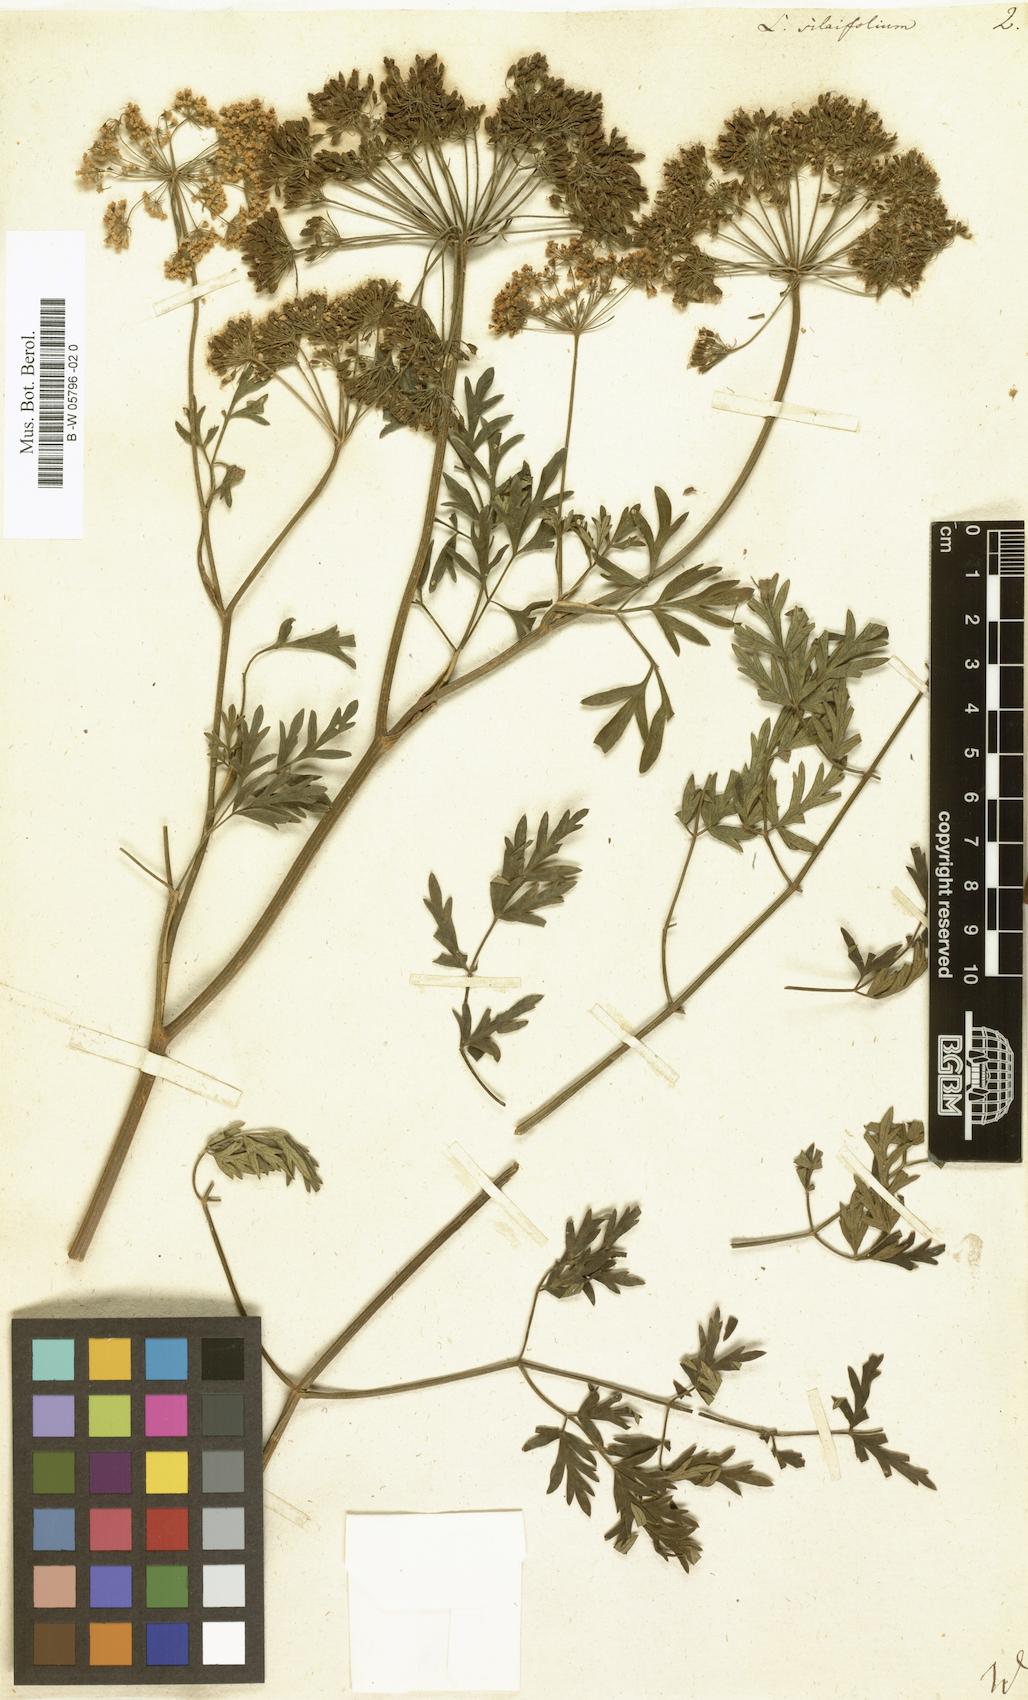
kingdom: Plantae
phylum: Tracheophyta
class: Magnoliopsida
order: Apiales
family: Apiaceae
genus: Katapsuxis
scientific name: Katapsuxis silaifolia
